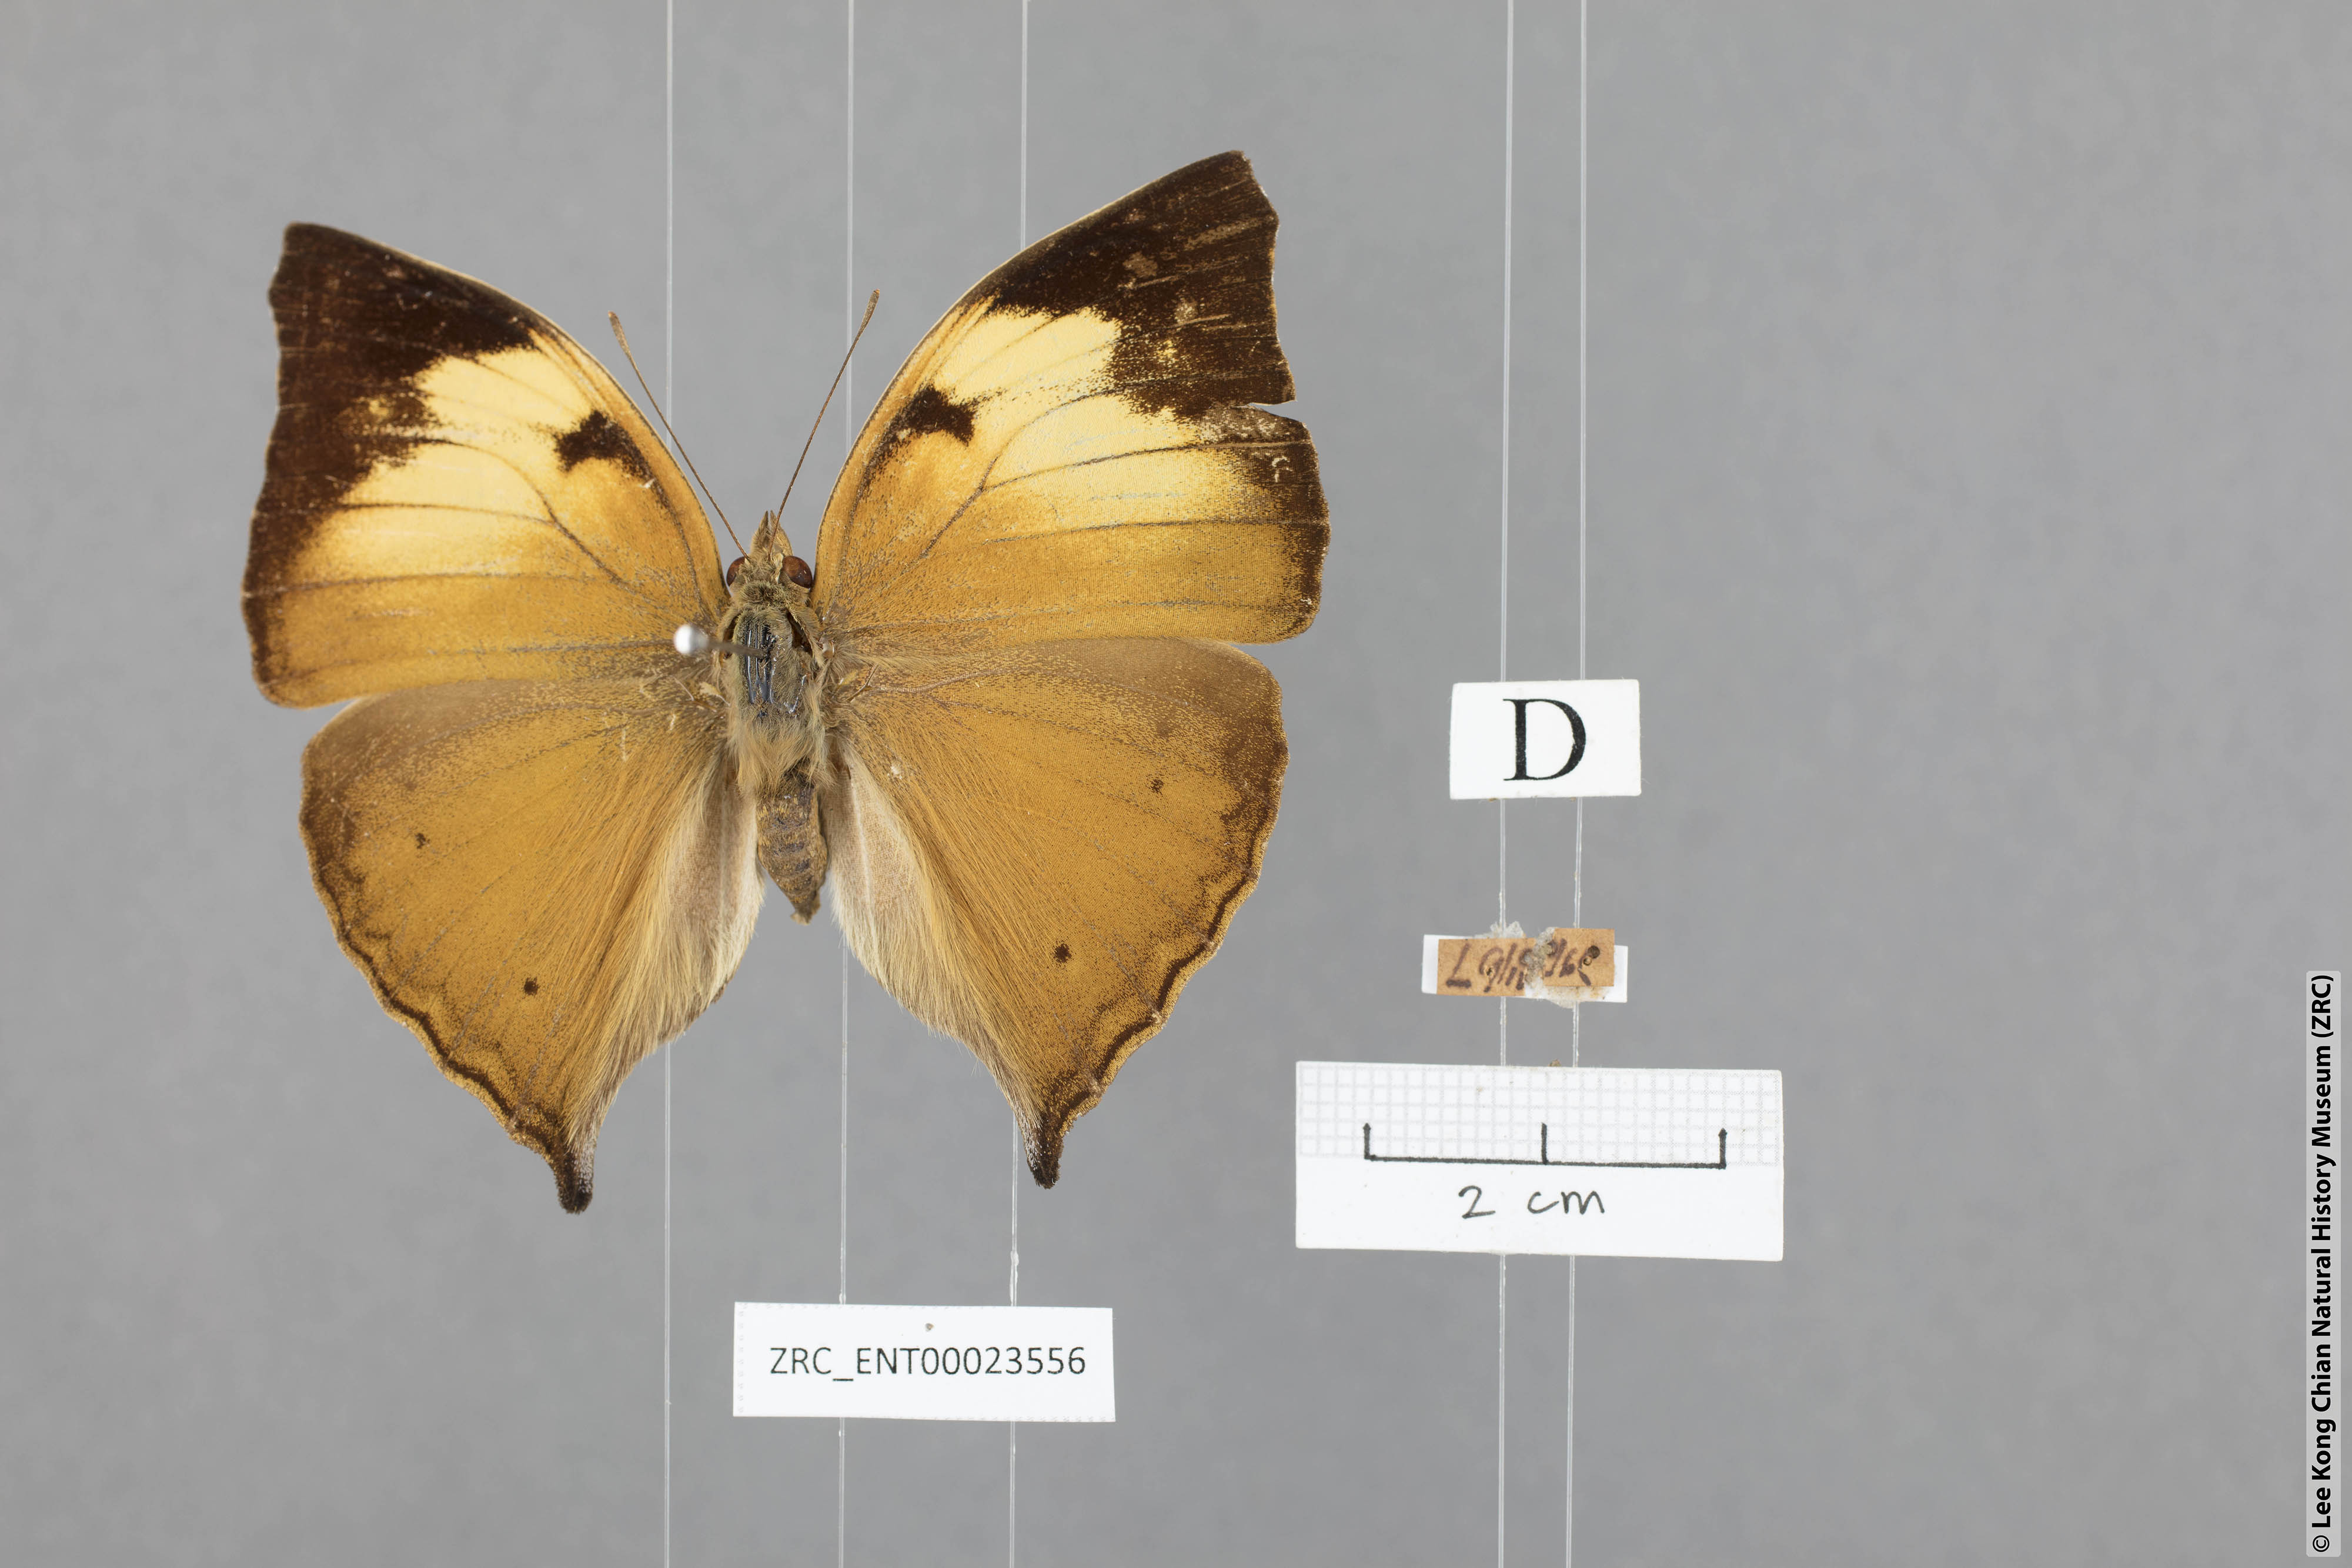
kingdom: Animalia
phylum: Arthropoda
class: Insecta
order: Lepidoptera
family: Nymphalidae
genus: Doleschallia
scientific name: Doleschallia bisaltide
